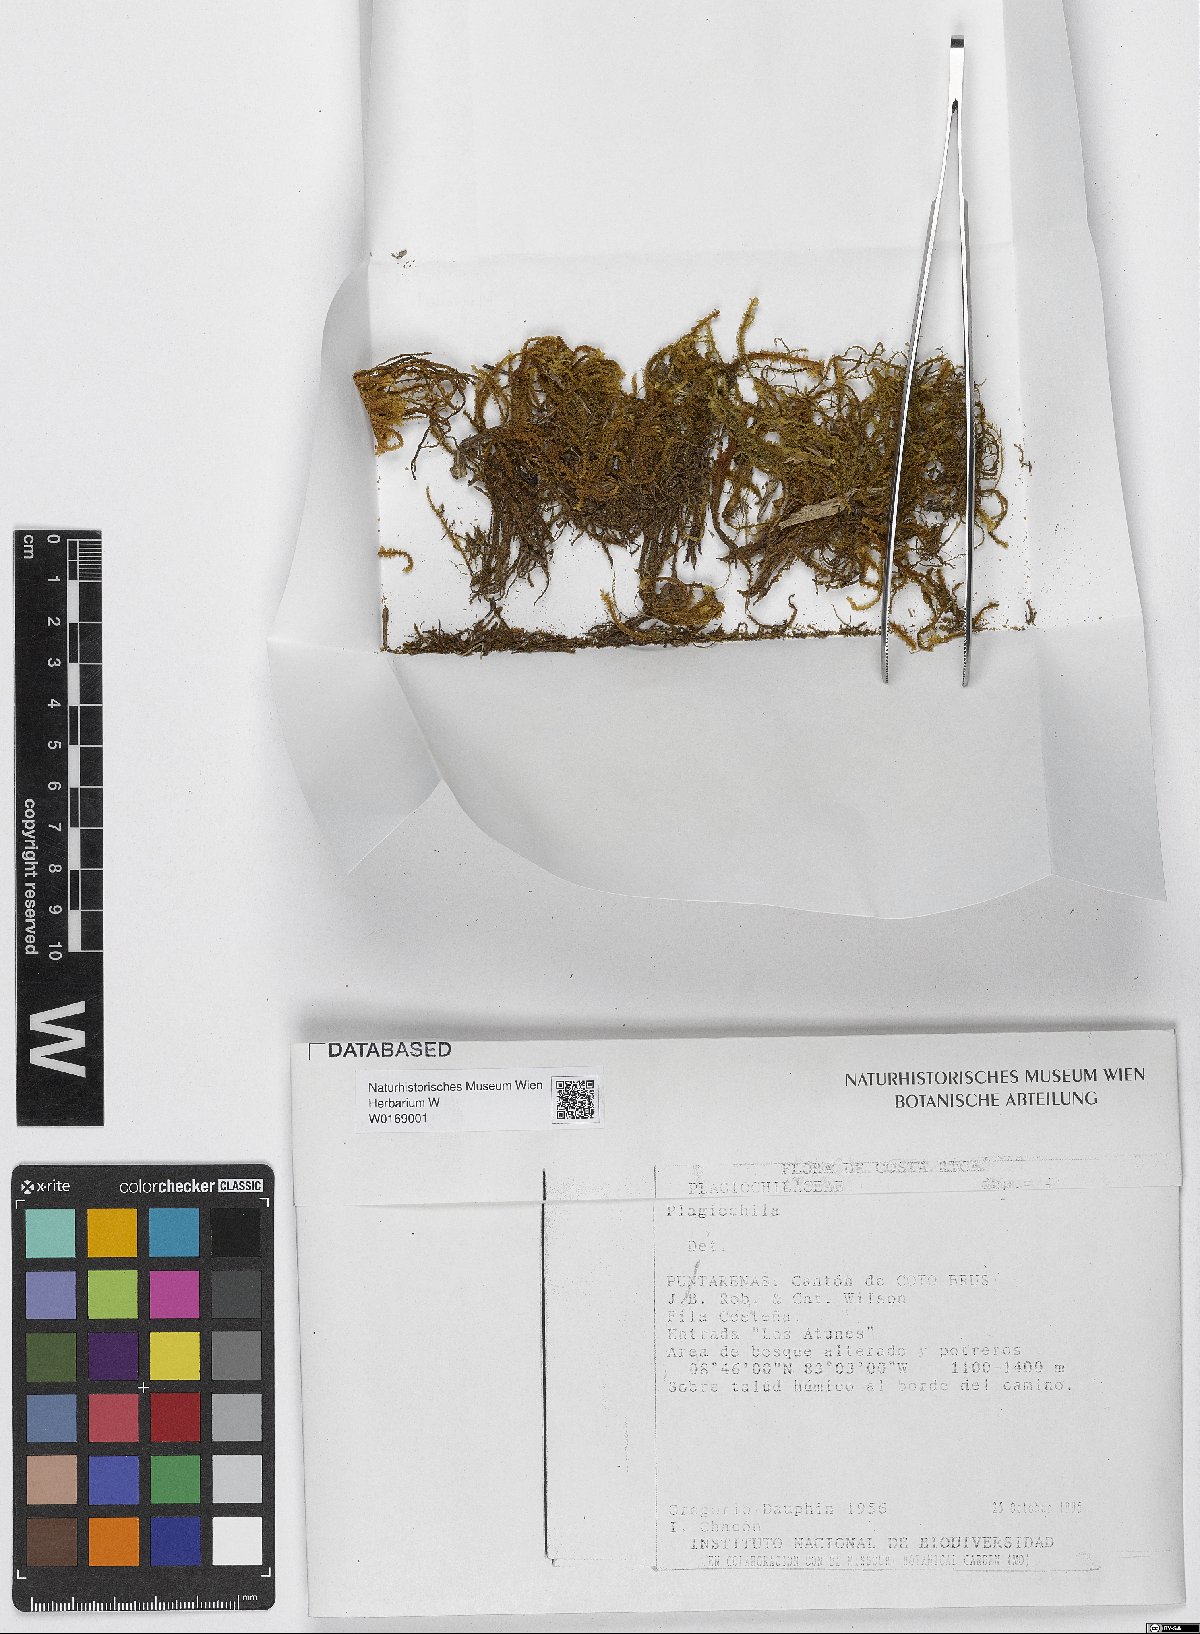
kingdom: Plantae
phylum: Marchantiophyta
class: Jungermanniopsida
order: Jungermanniales
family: Plagiochilaceae
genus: Plagiochila
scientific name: Plagiochila
